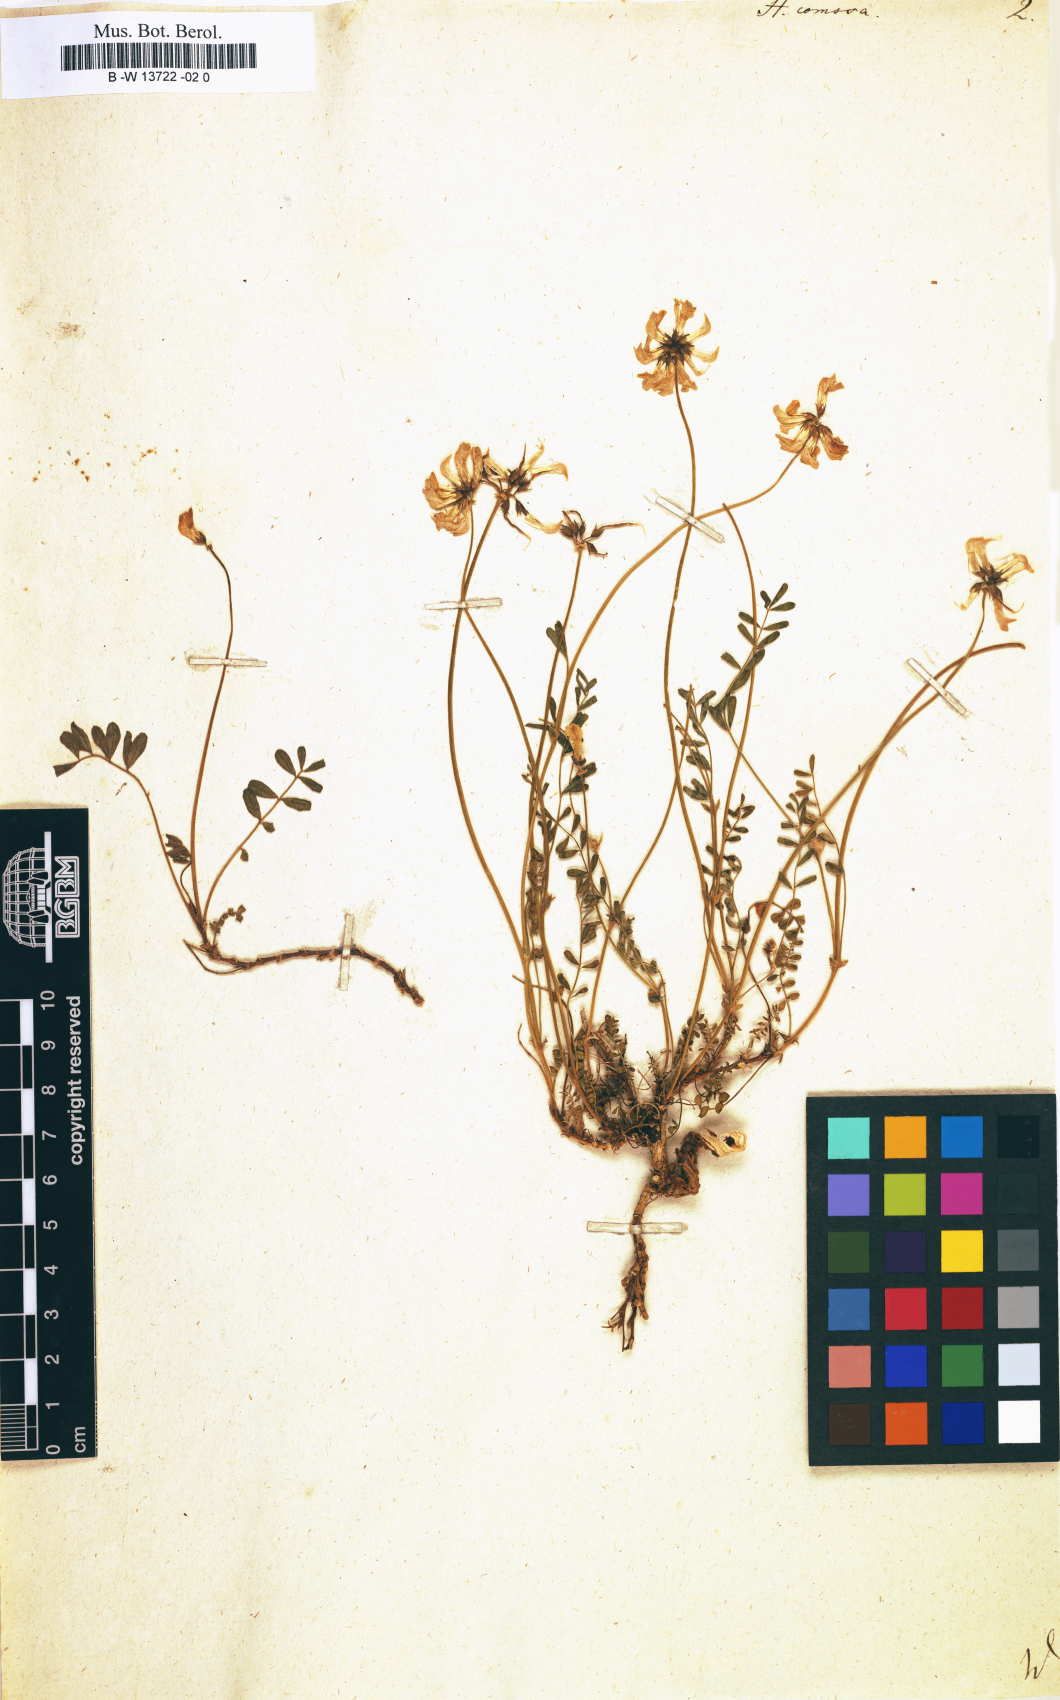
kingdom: Plantae
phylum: Tracheophyta
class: Magnoliopsida
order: Fabales
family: Fabaceae
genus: Hippocrepis
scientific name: Hippocrepis comosa
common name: Horseshoe vetch
